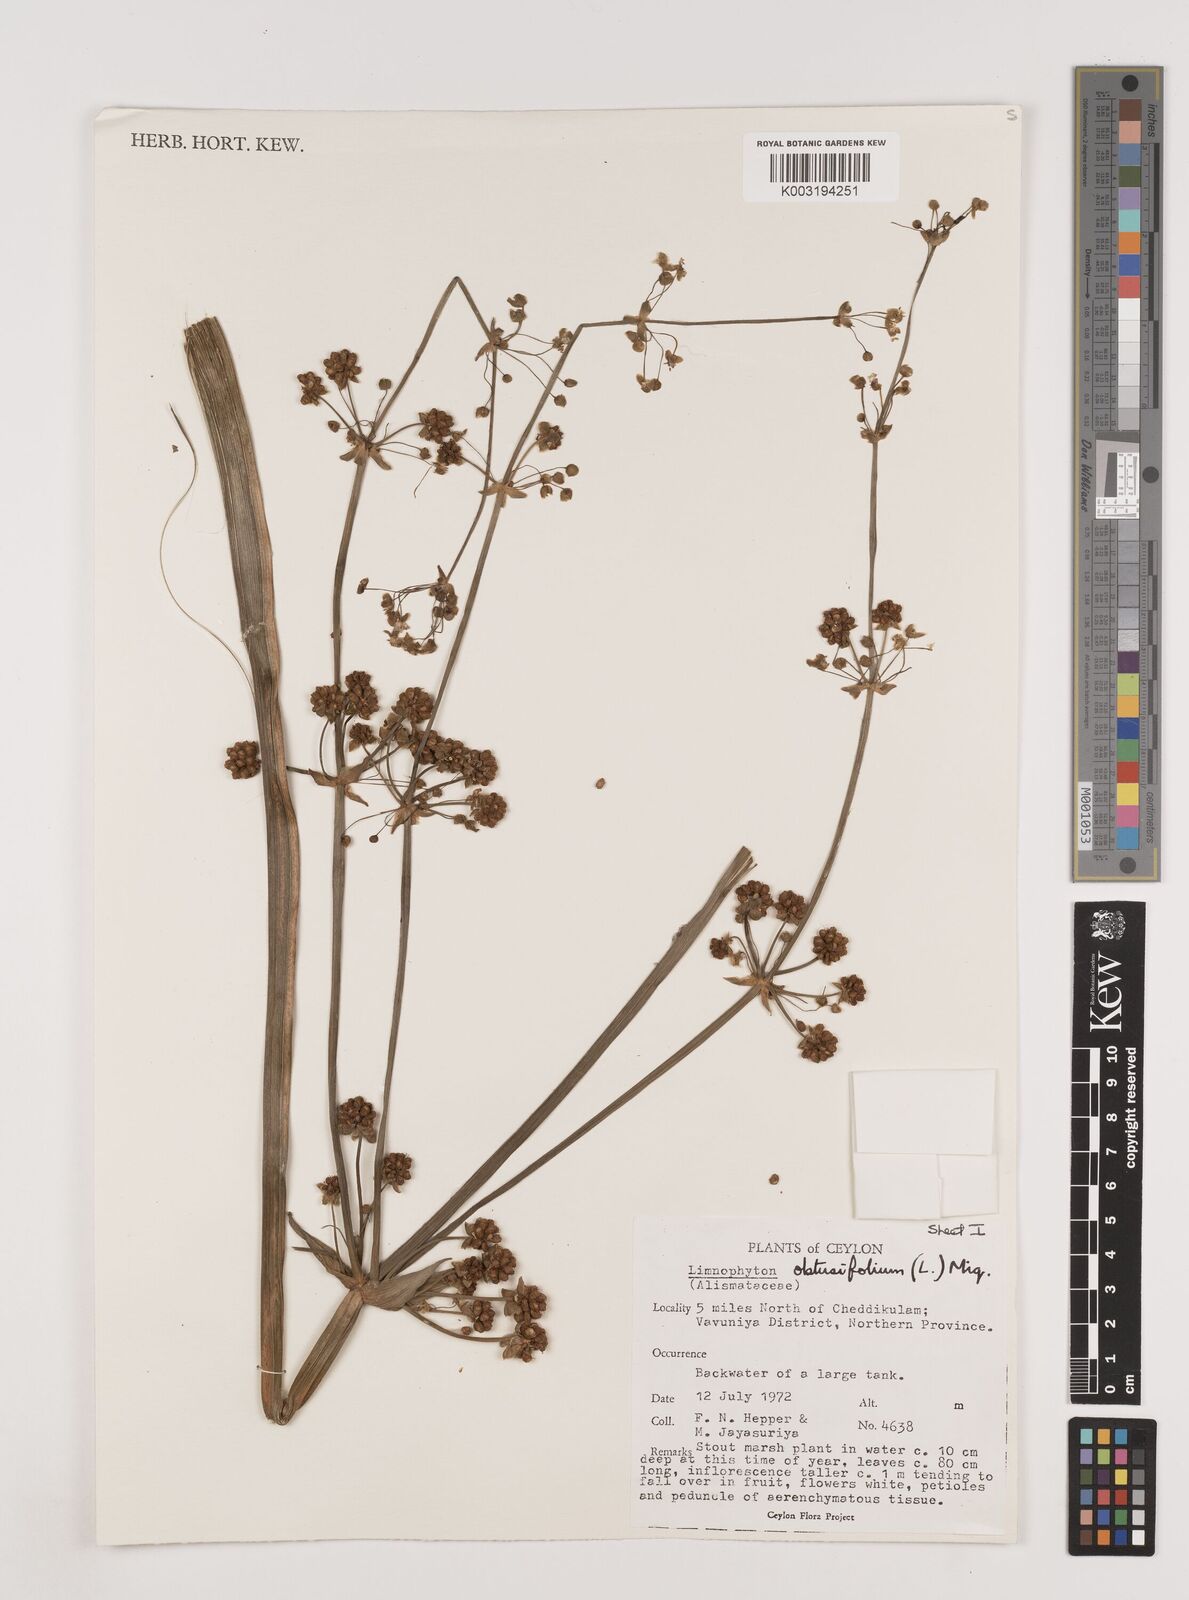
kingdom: Plantae
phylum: Tracheophyta
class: Liliopsida
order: Alismatales
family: Alismataceae
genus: Limnophyton
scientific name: Limnophyton obtusifolium
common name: Arrow head
